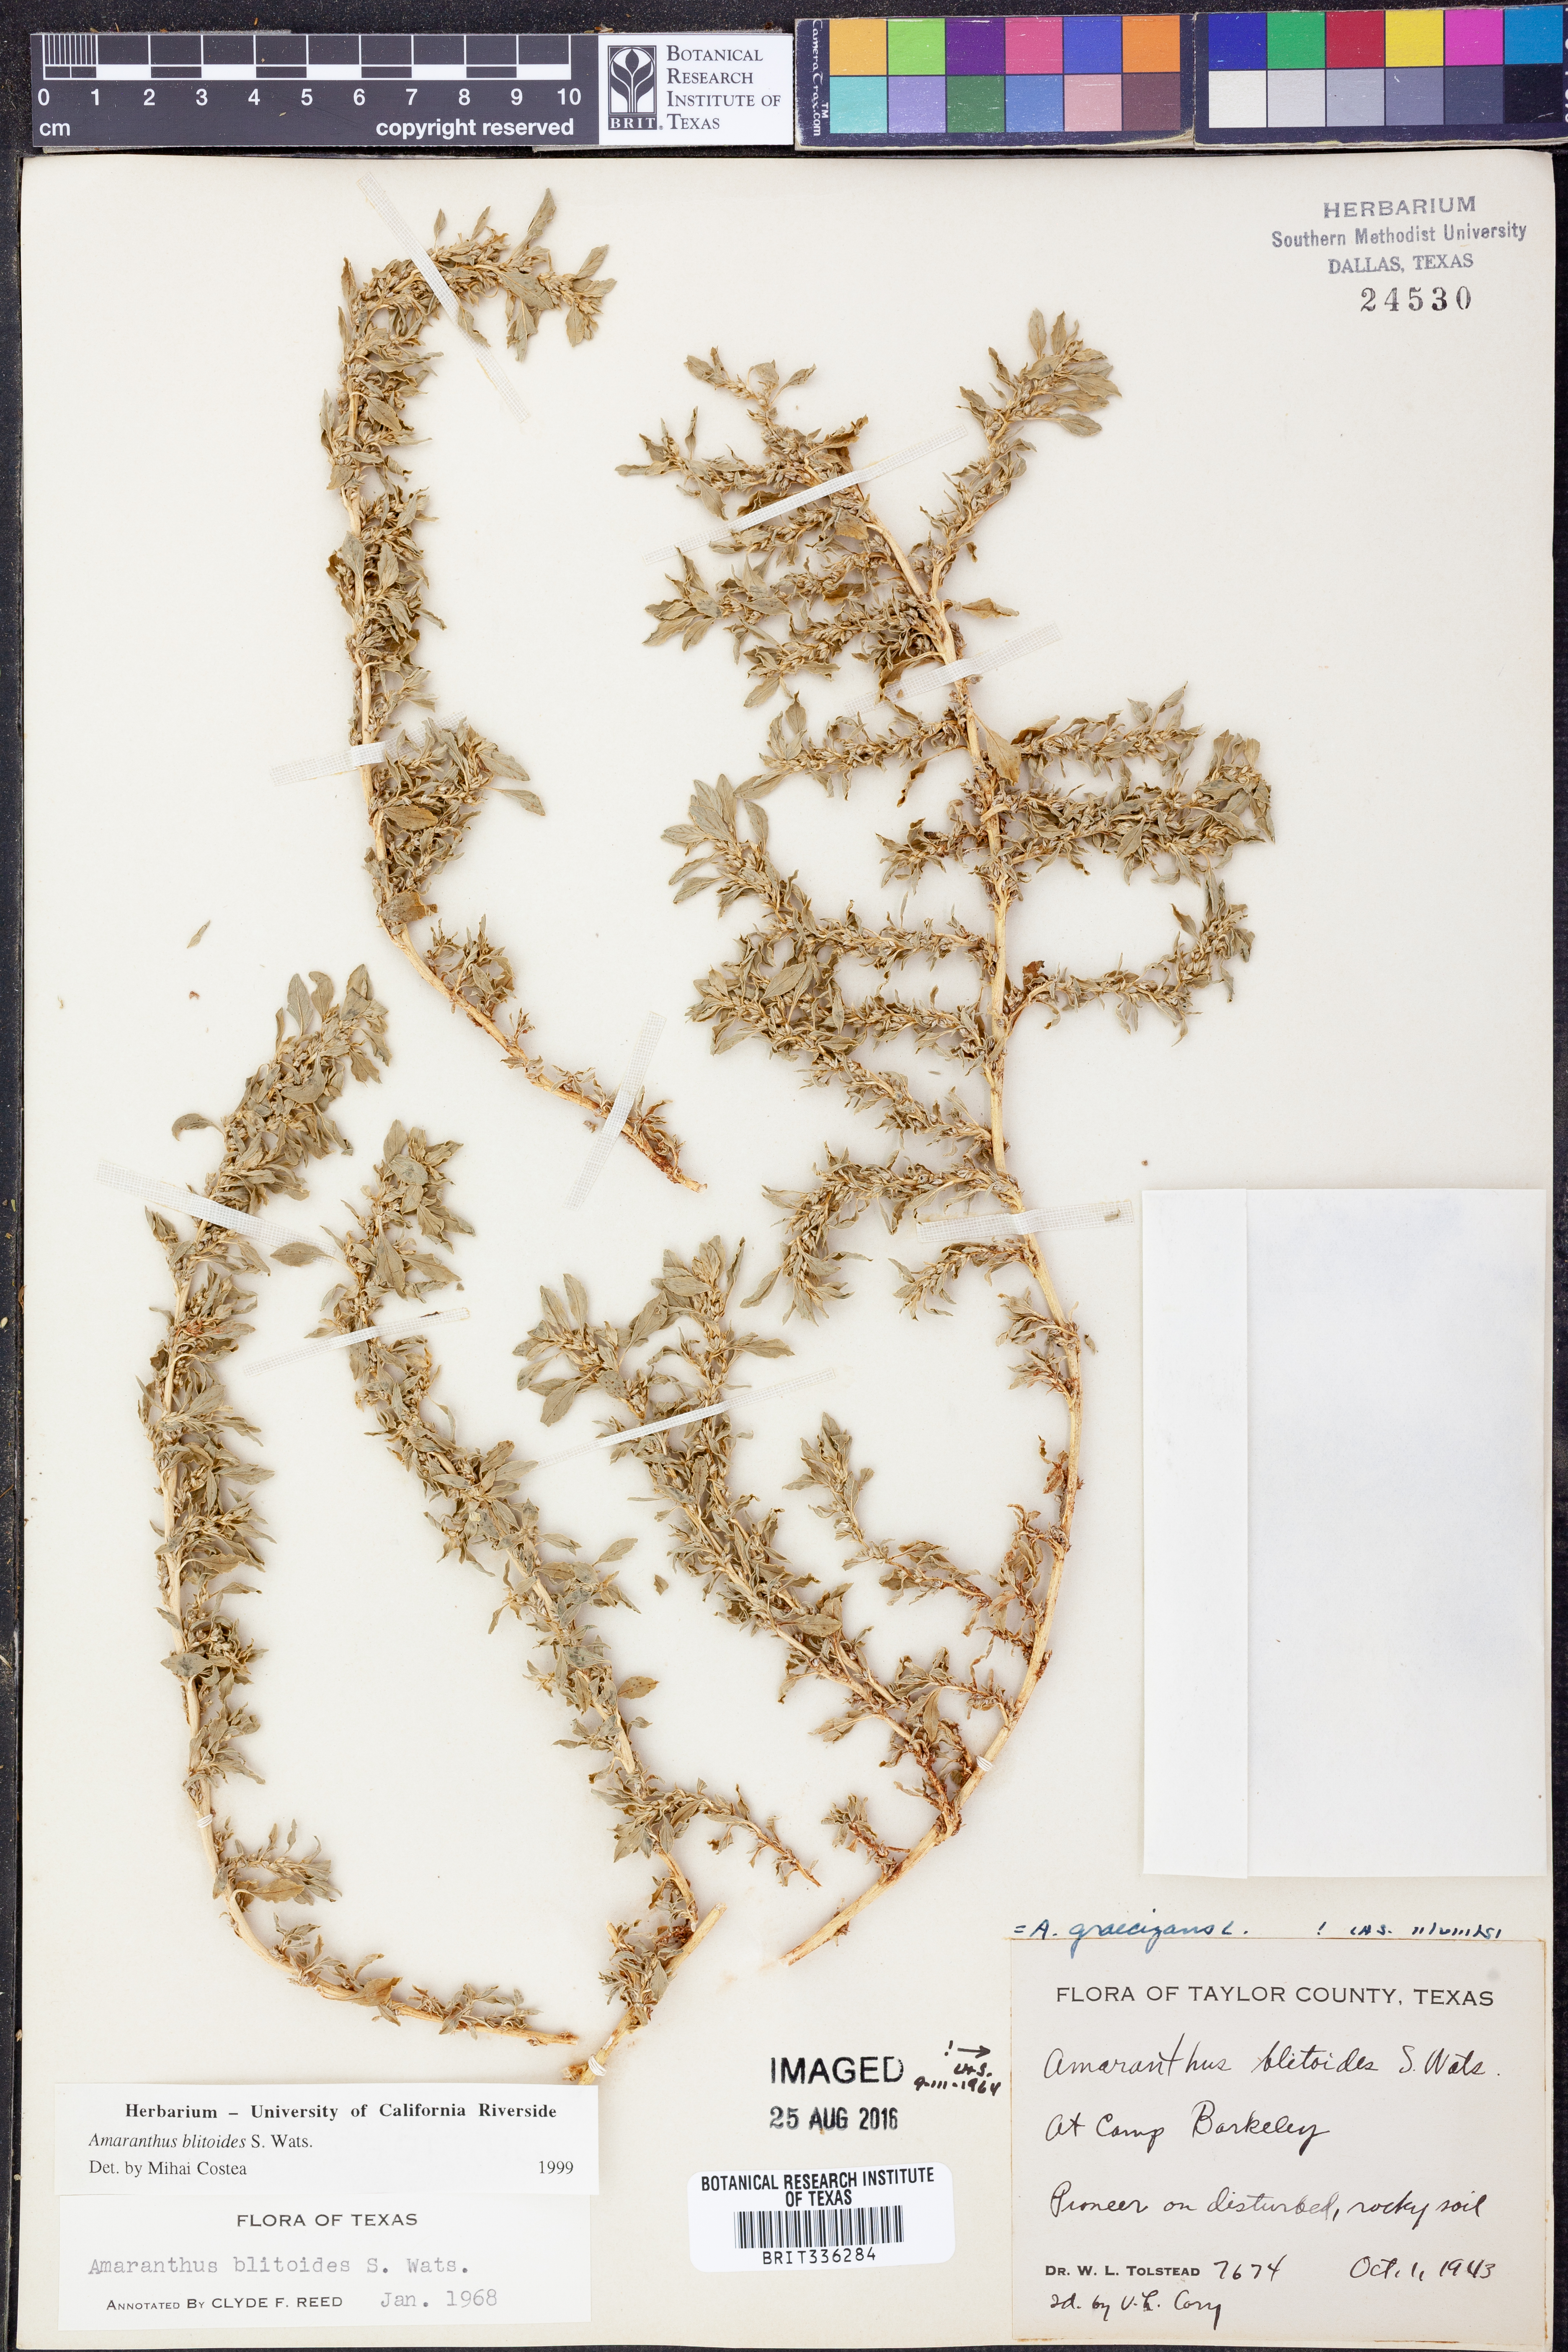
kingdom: Plantae
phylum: Tracheophyta
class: Magnoliopsida
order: Caryophyllales
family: Amaranthaceae
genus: Amaranthus
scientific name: Amaranthus blitoides
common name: Prostrate pigweed
